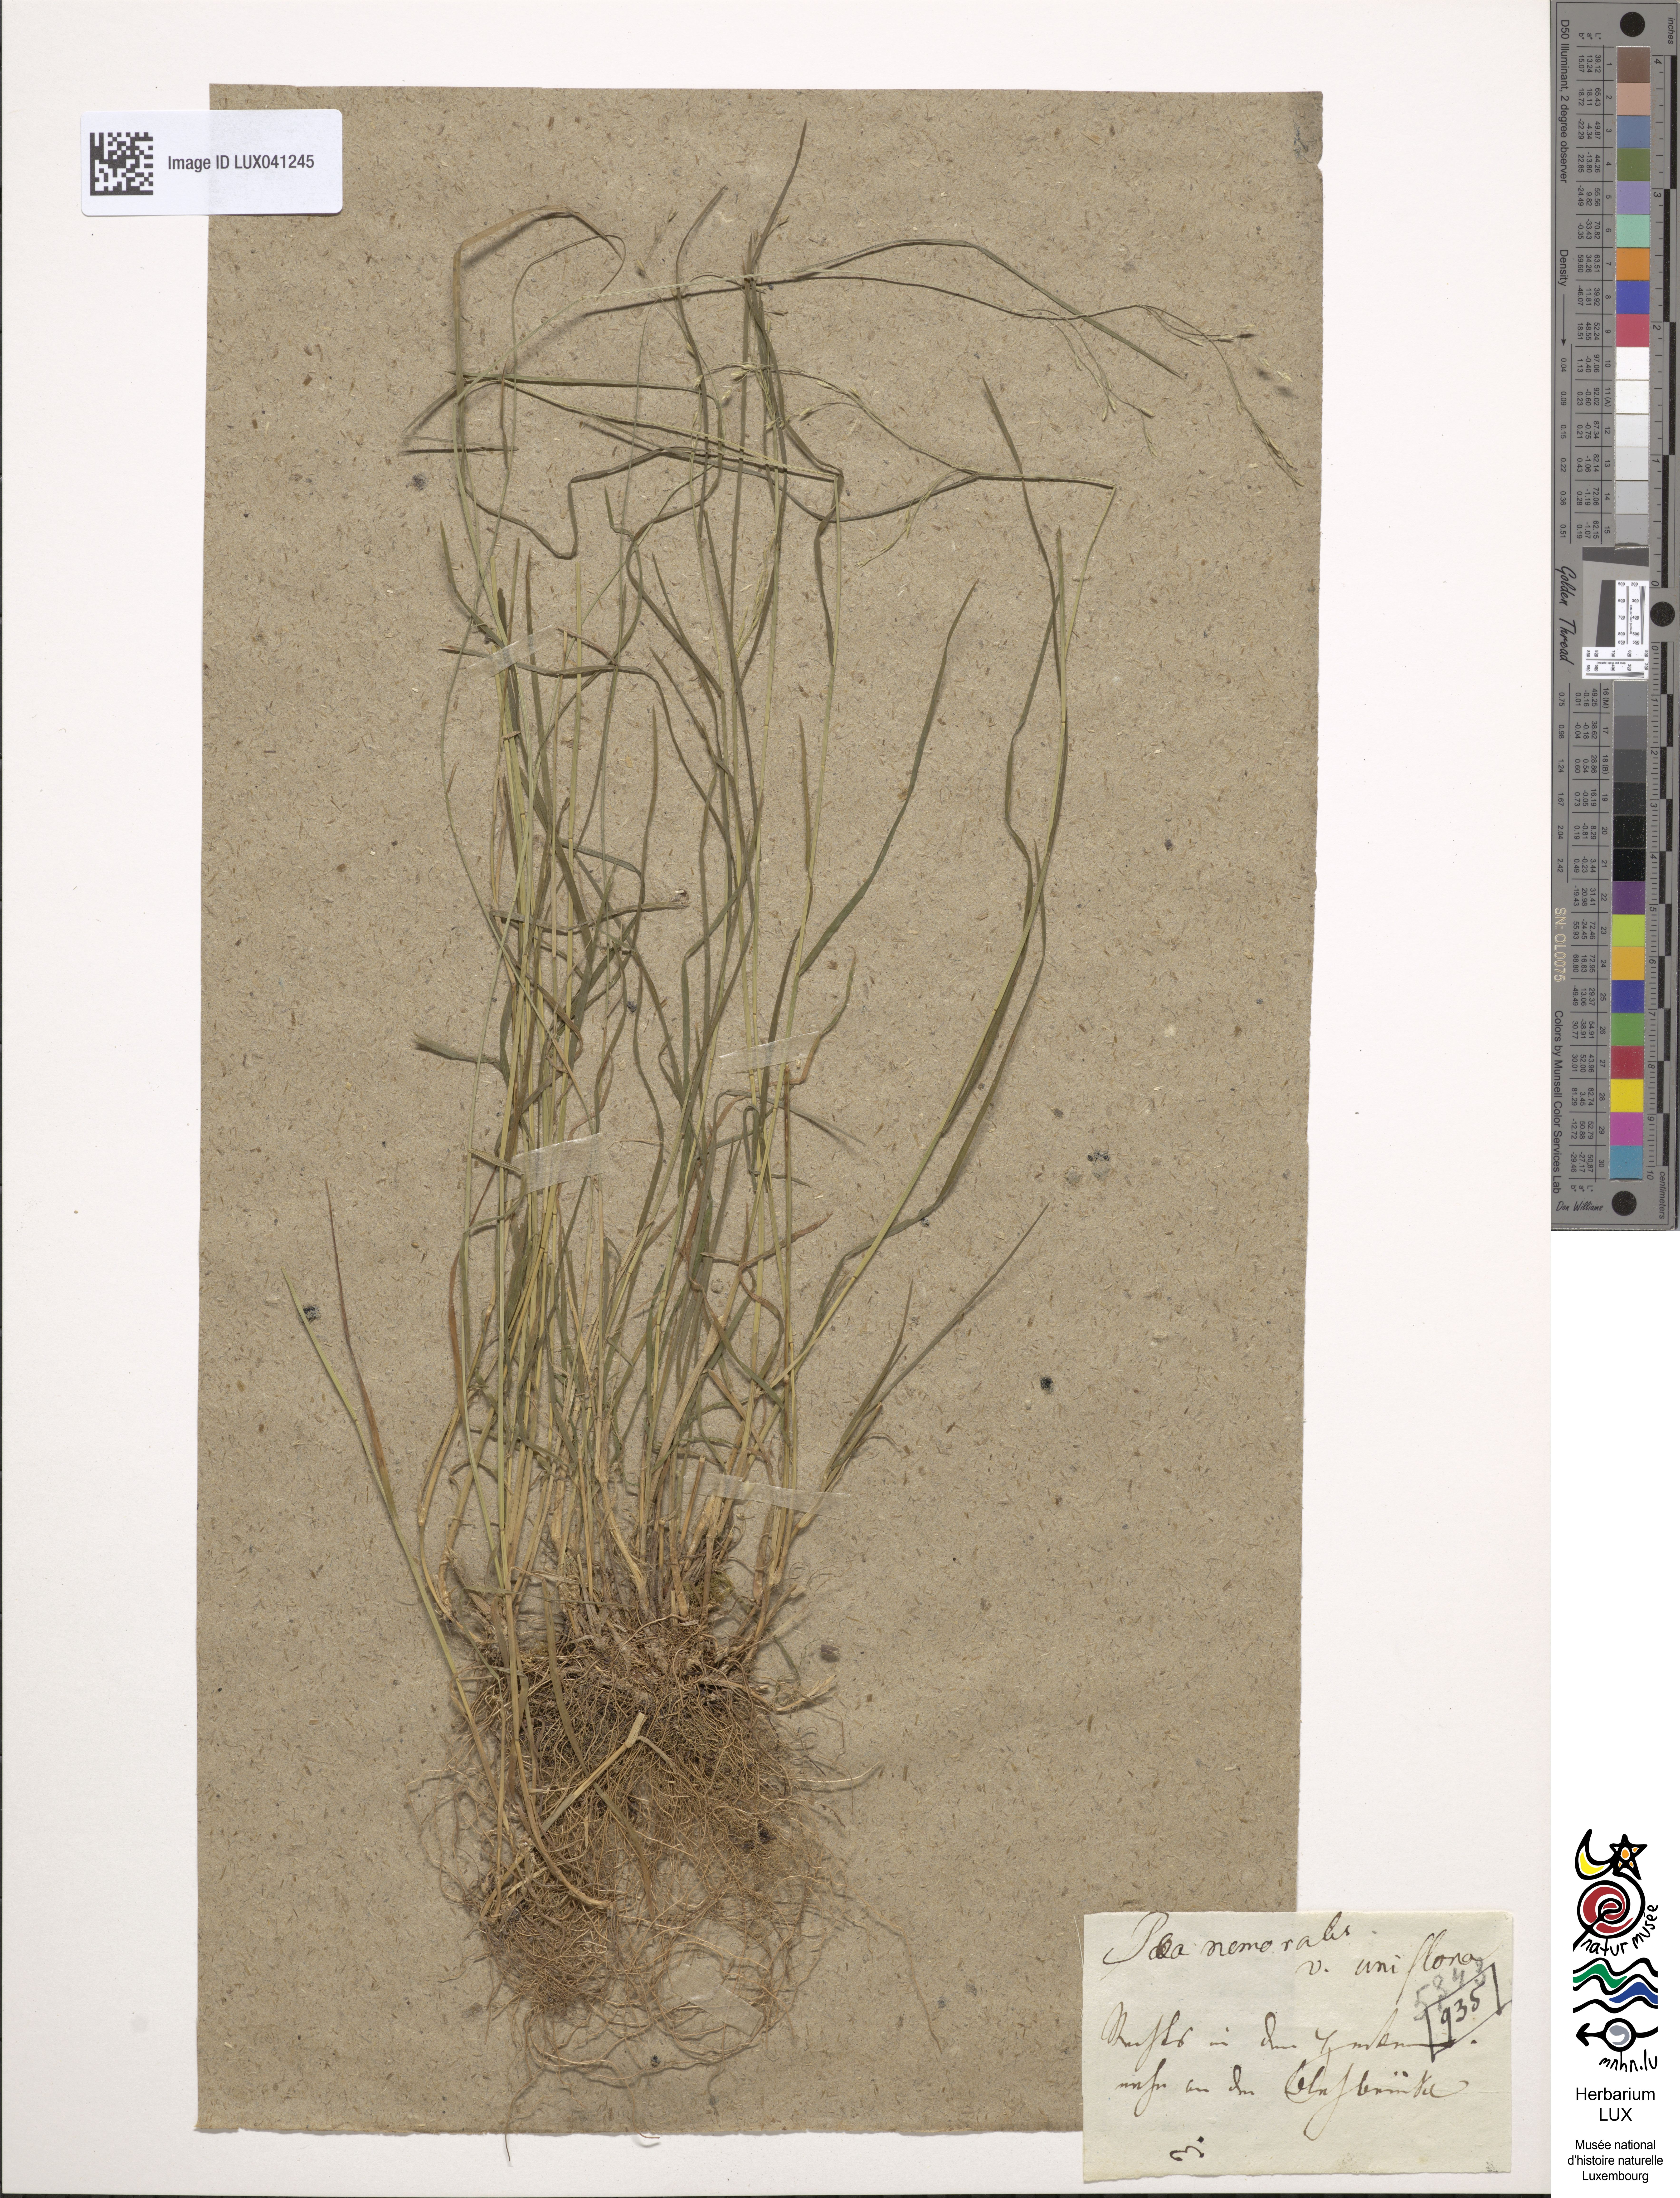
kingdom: Plantae
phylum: Tracheophyta
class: Liliopsida
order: Poales
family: Poaceae
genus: Poa
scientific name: Poa nemoralis
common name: Wood bluegrass
